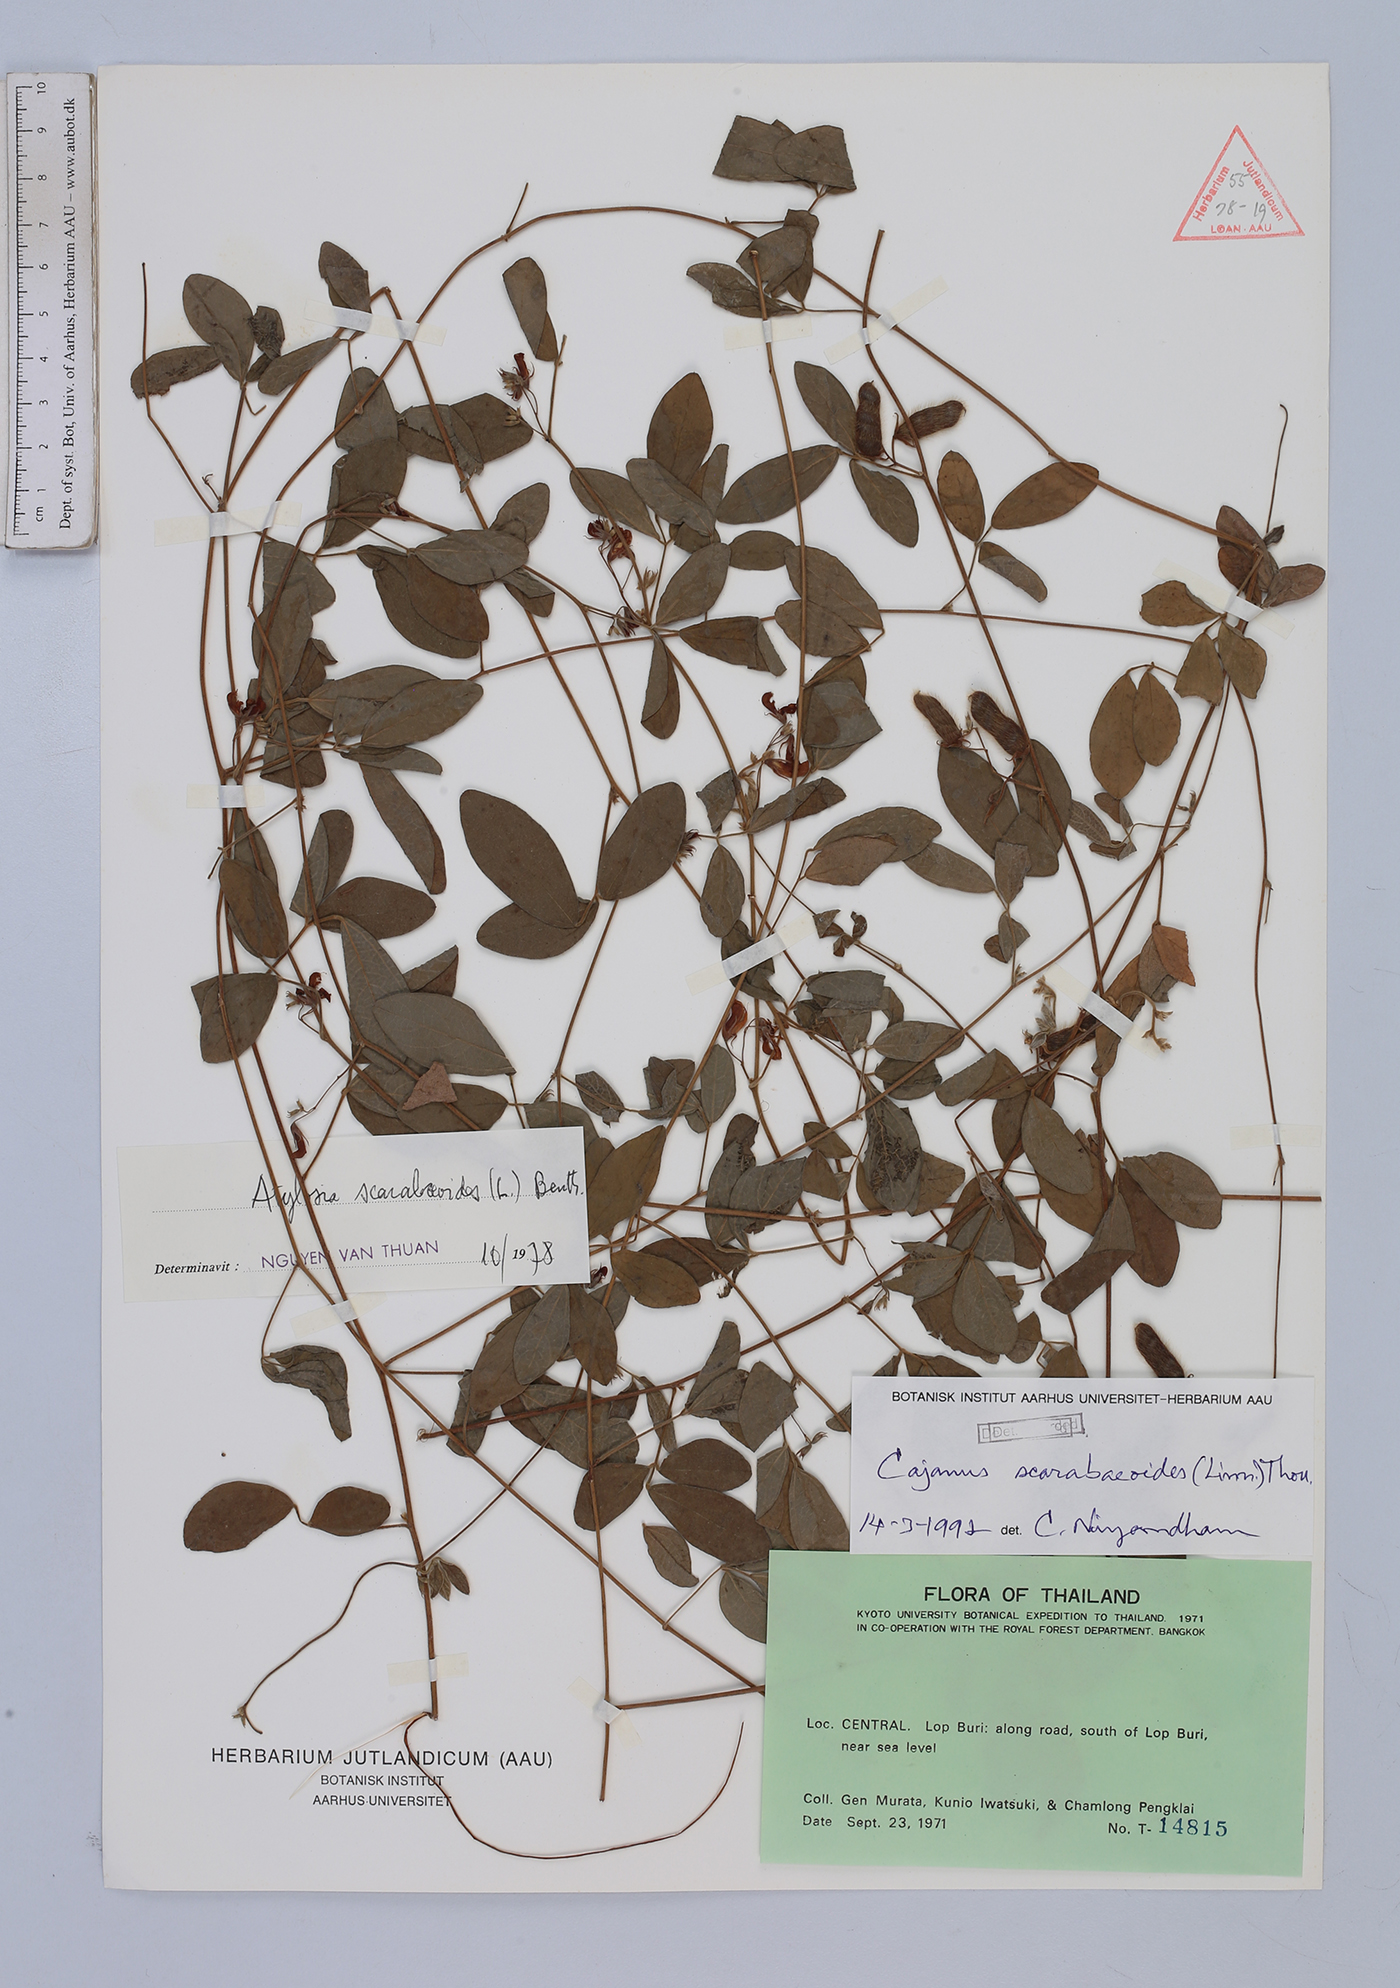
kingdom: Plantae
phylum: Tracheophyta
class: Magnoliopsida
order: Fabales
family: Fabaceae
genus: Cajanus
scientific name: Cajanus scarabaeoides
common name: Showy pigeonpea
